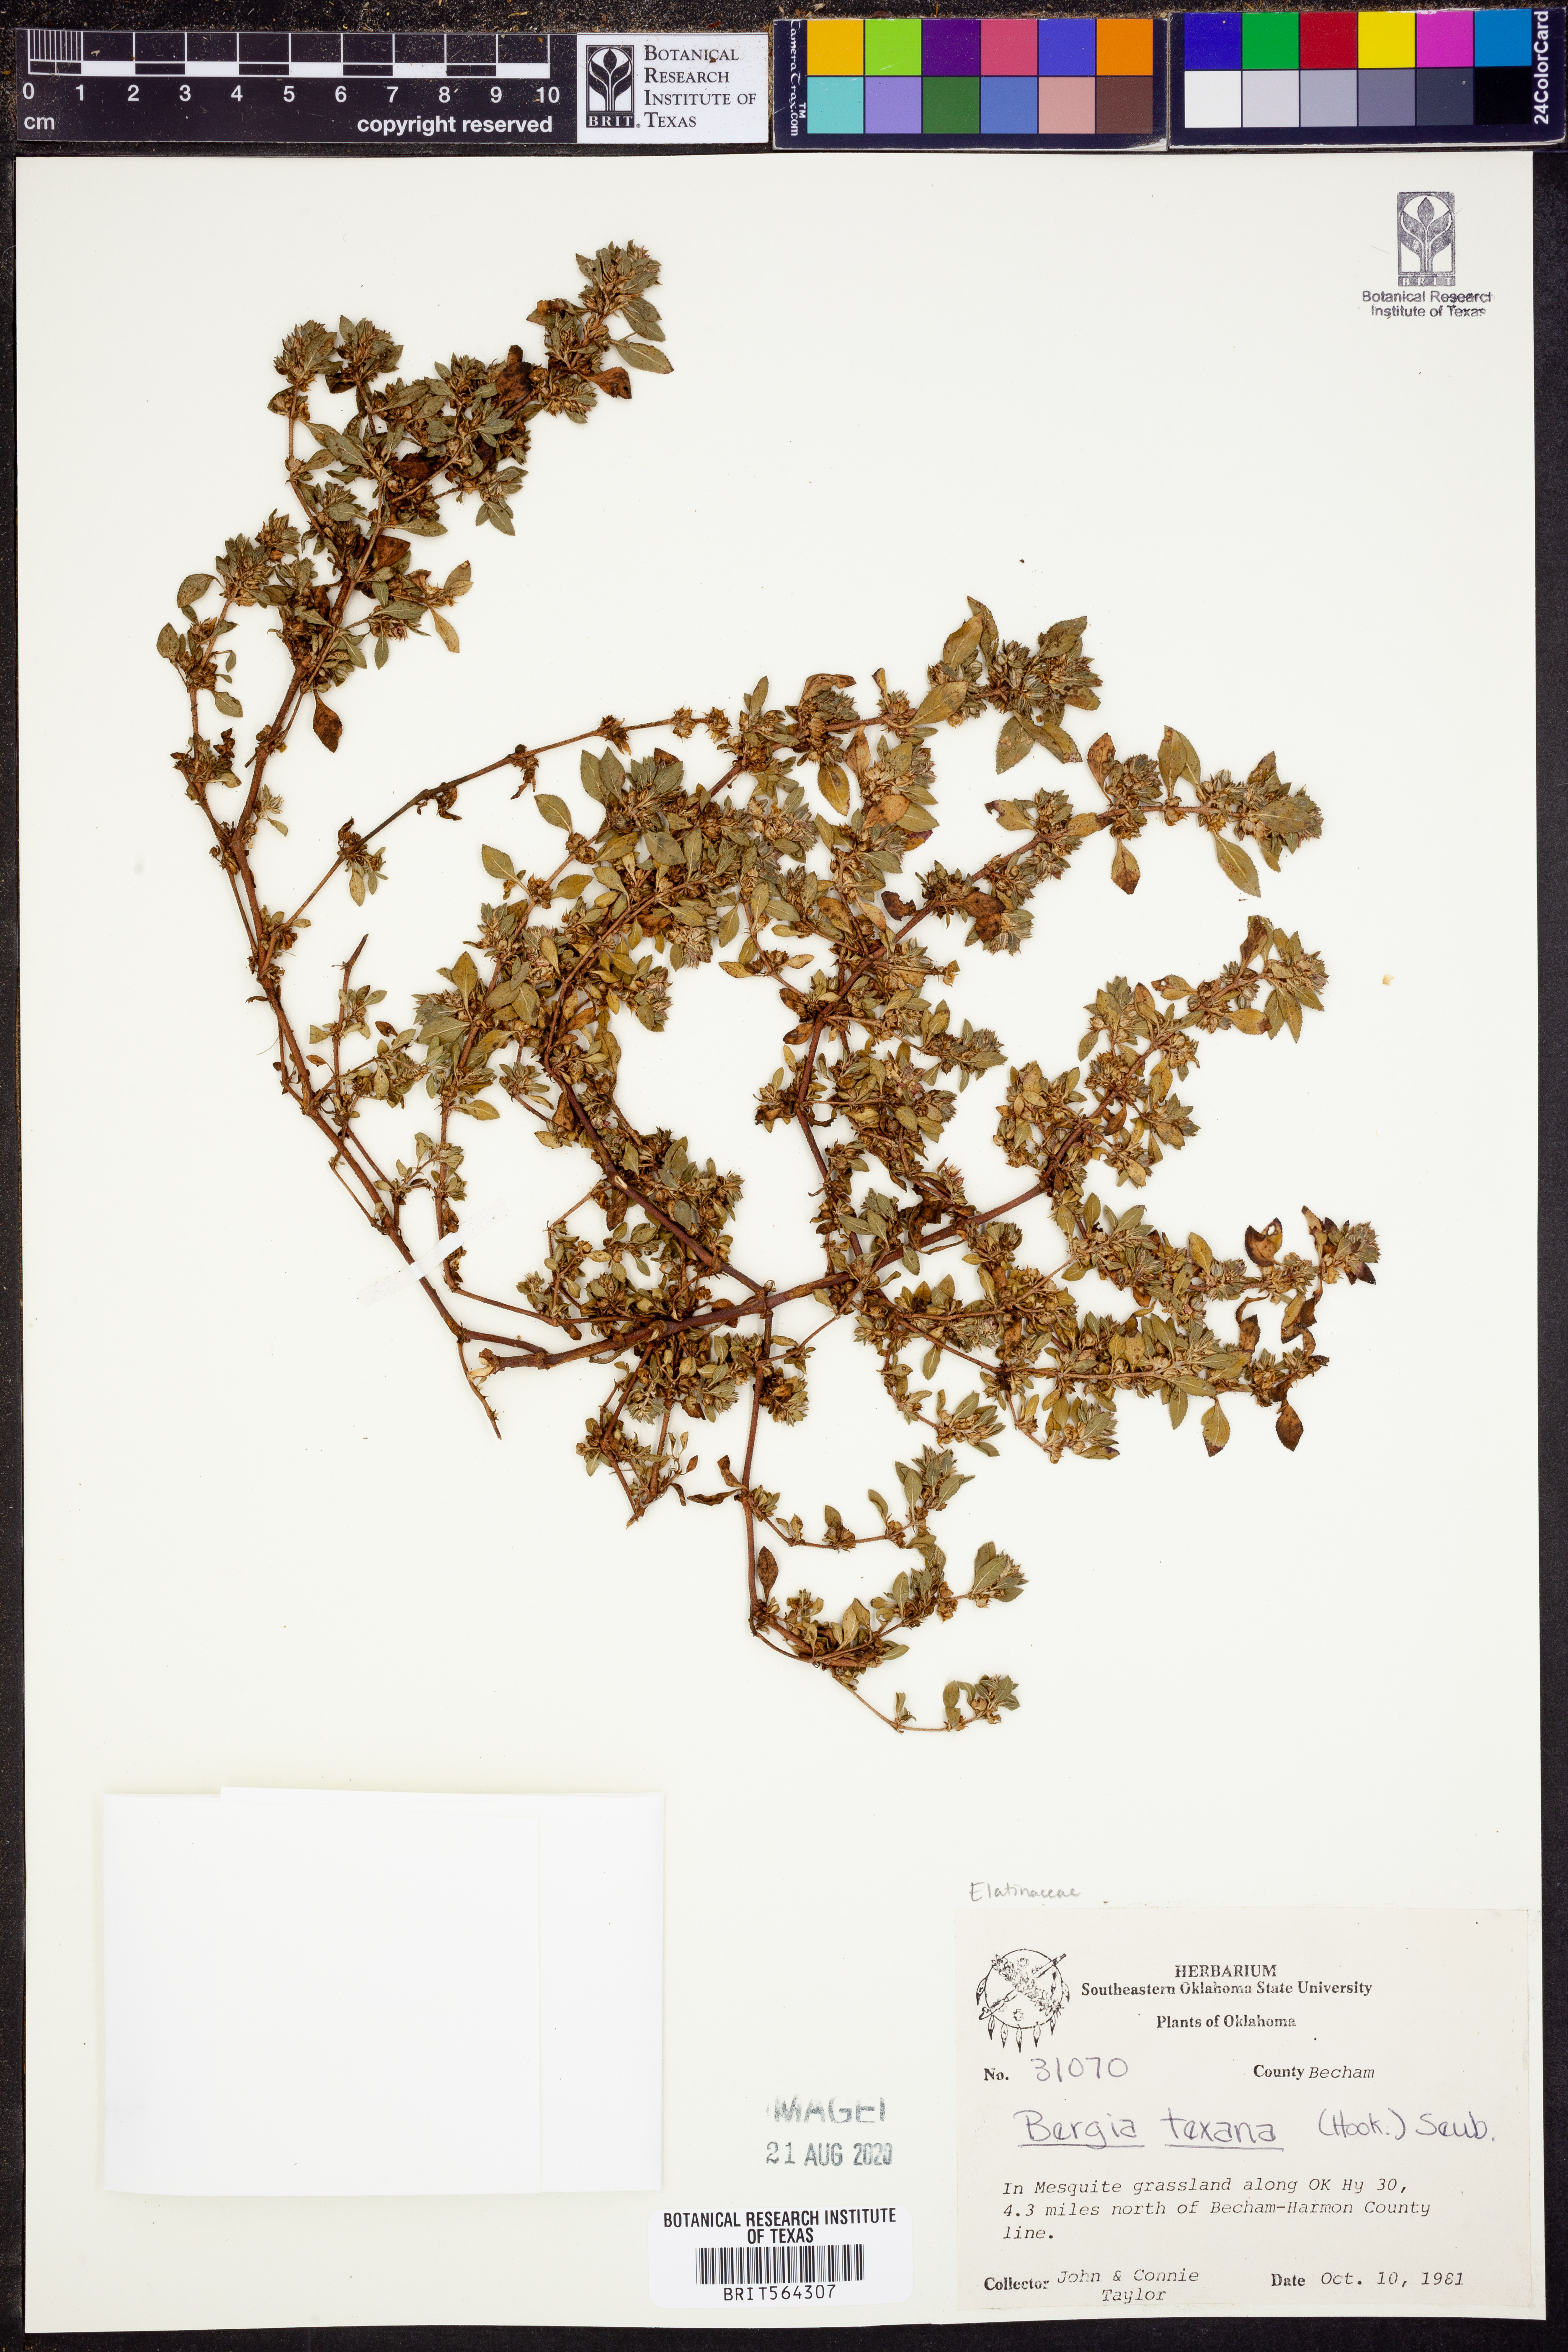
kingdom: Plantae
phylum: Tracheophyta
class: Magnoliopsida
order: Malpighiales
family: Elatinaceae
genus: Bergia
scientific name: Bergia texana
